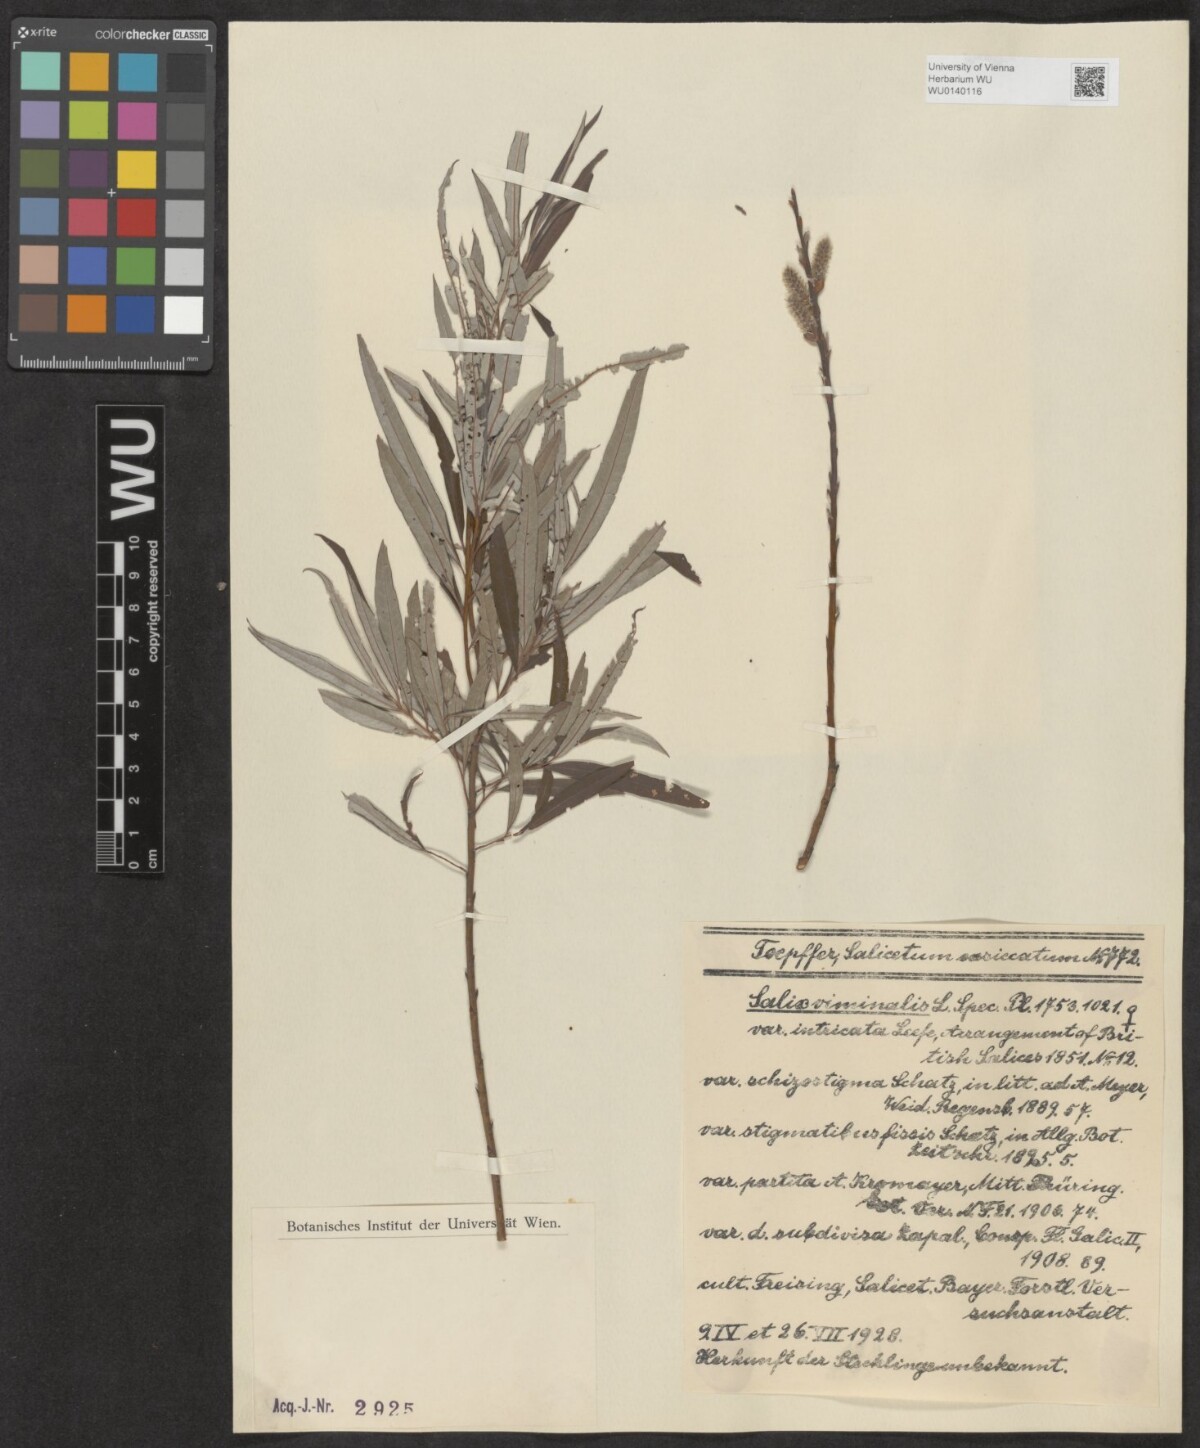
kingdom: Plantae
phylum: Tracheophyta
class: Magnoliopsida
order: Malpighiales
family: Salicaceae
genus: Salix
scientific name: Salix viminalis
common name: Osier
